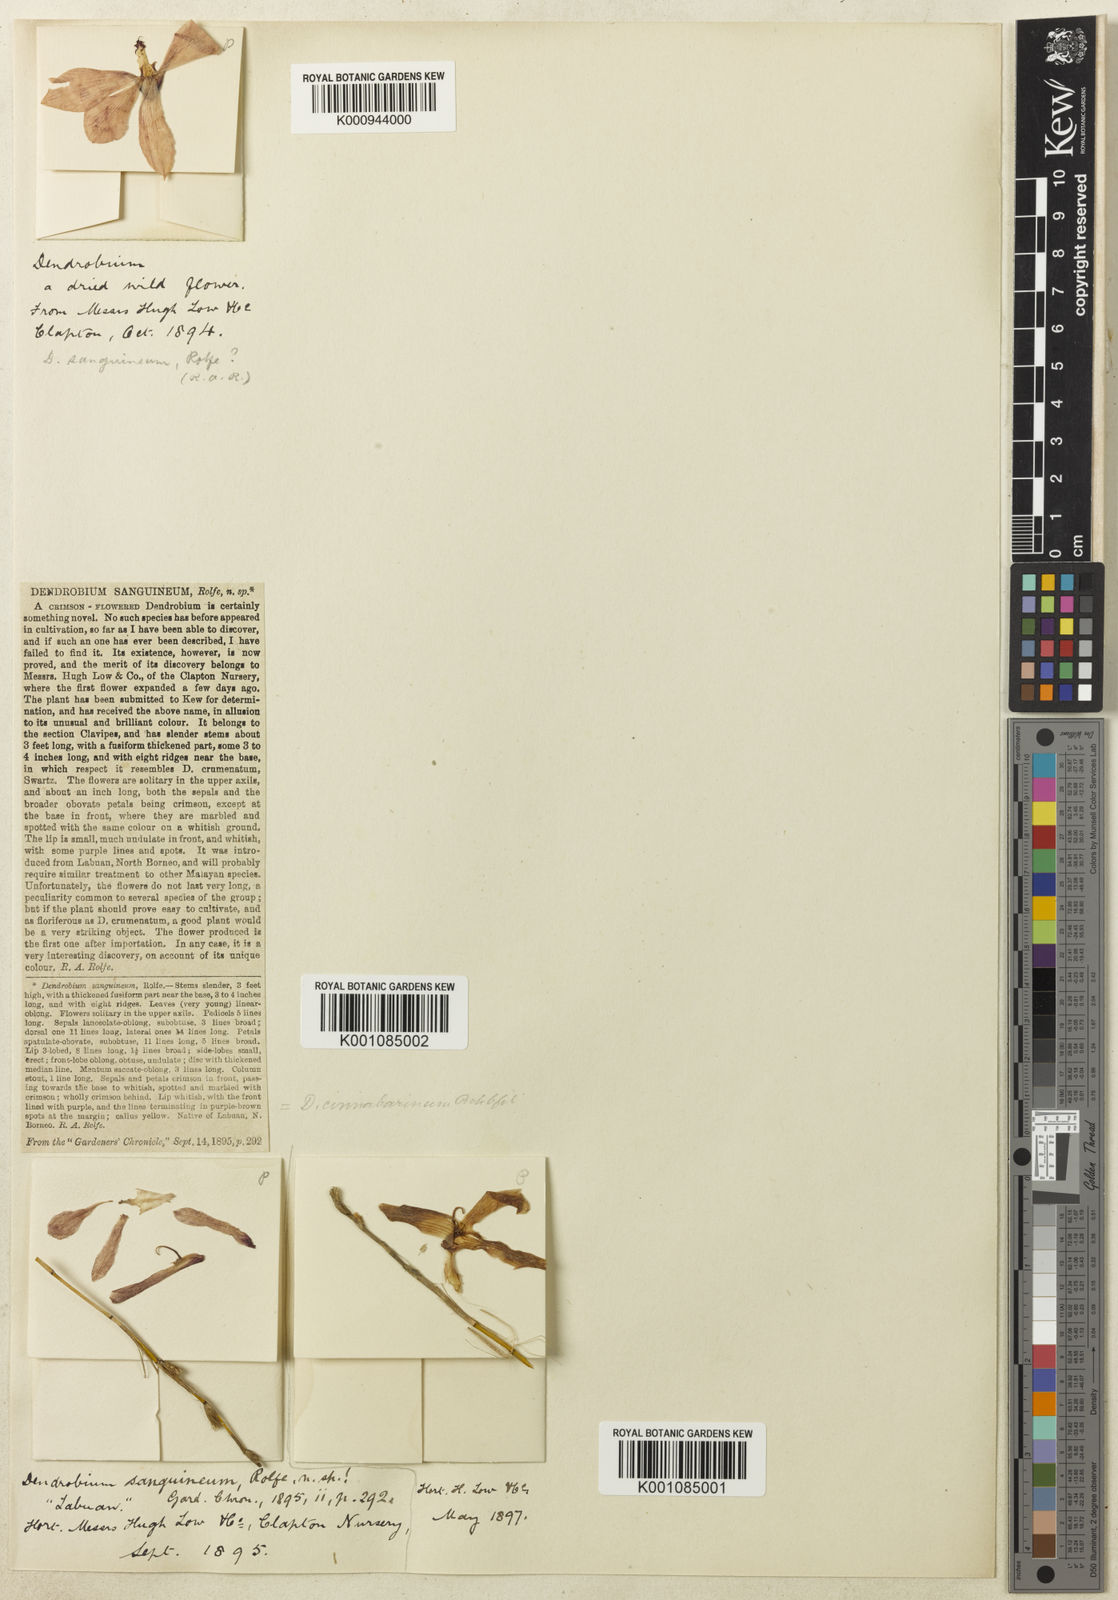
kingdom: Plantae
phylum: Tracheophyta
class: Liliopsida
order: Asparagales
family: Orchidaceae
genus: Dendrobium
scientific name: Dendrobium cinnabarinum
